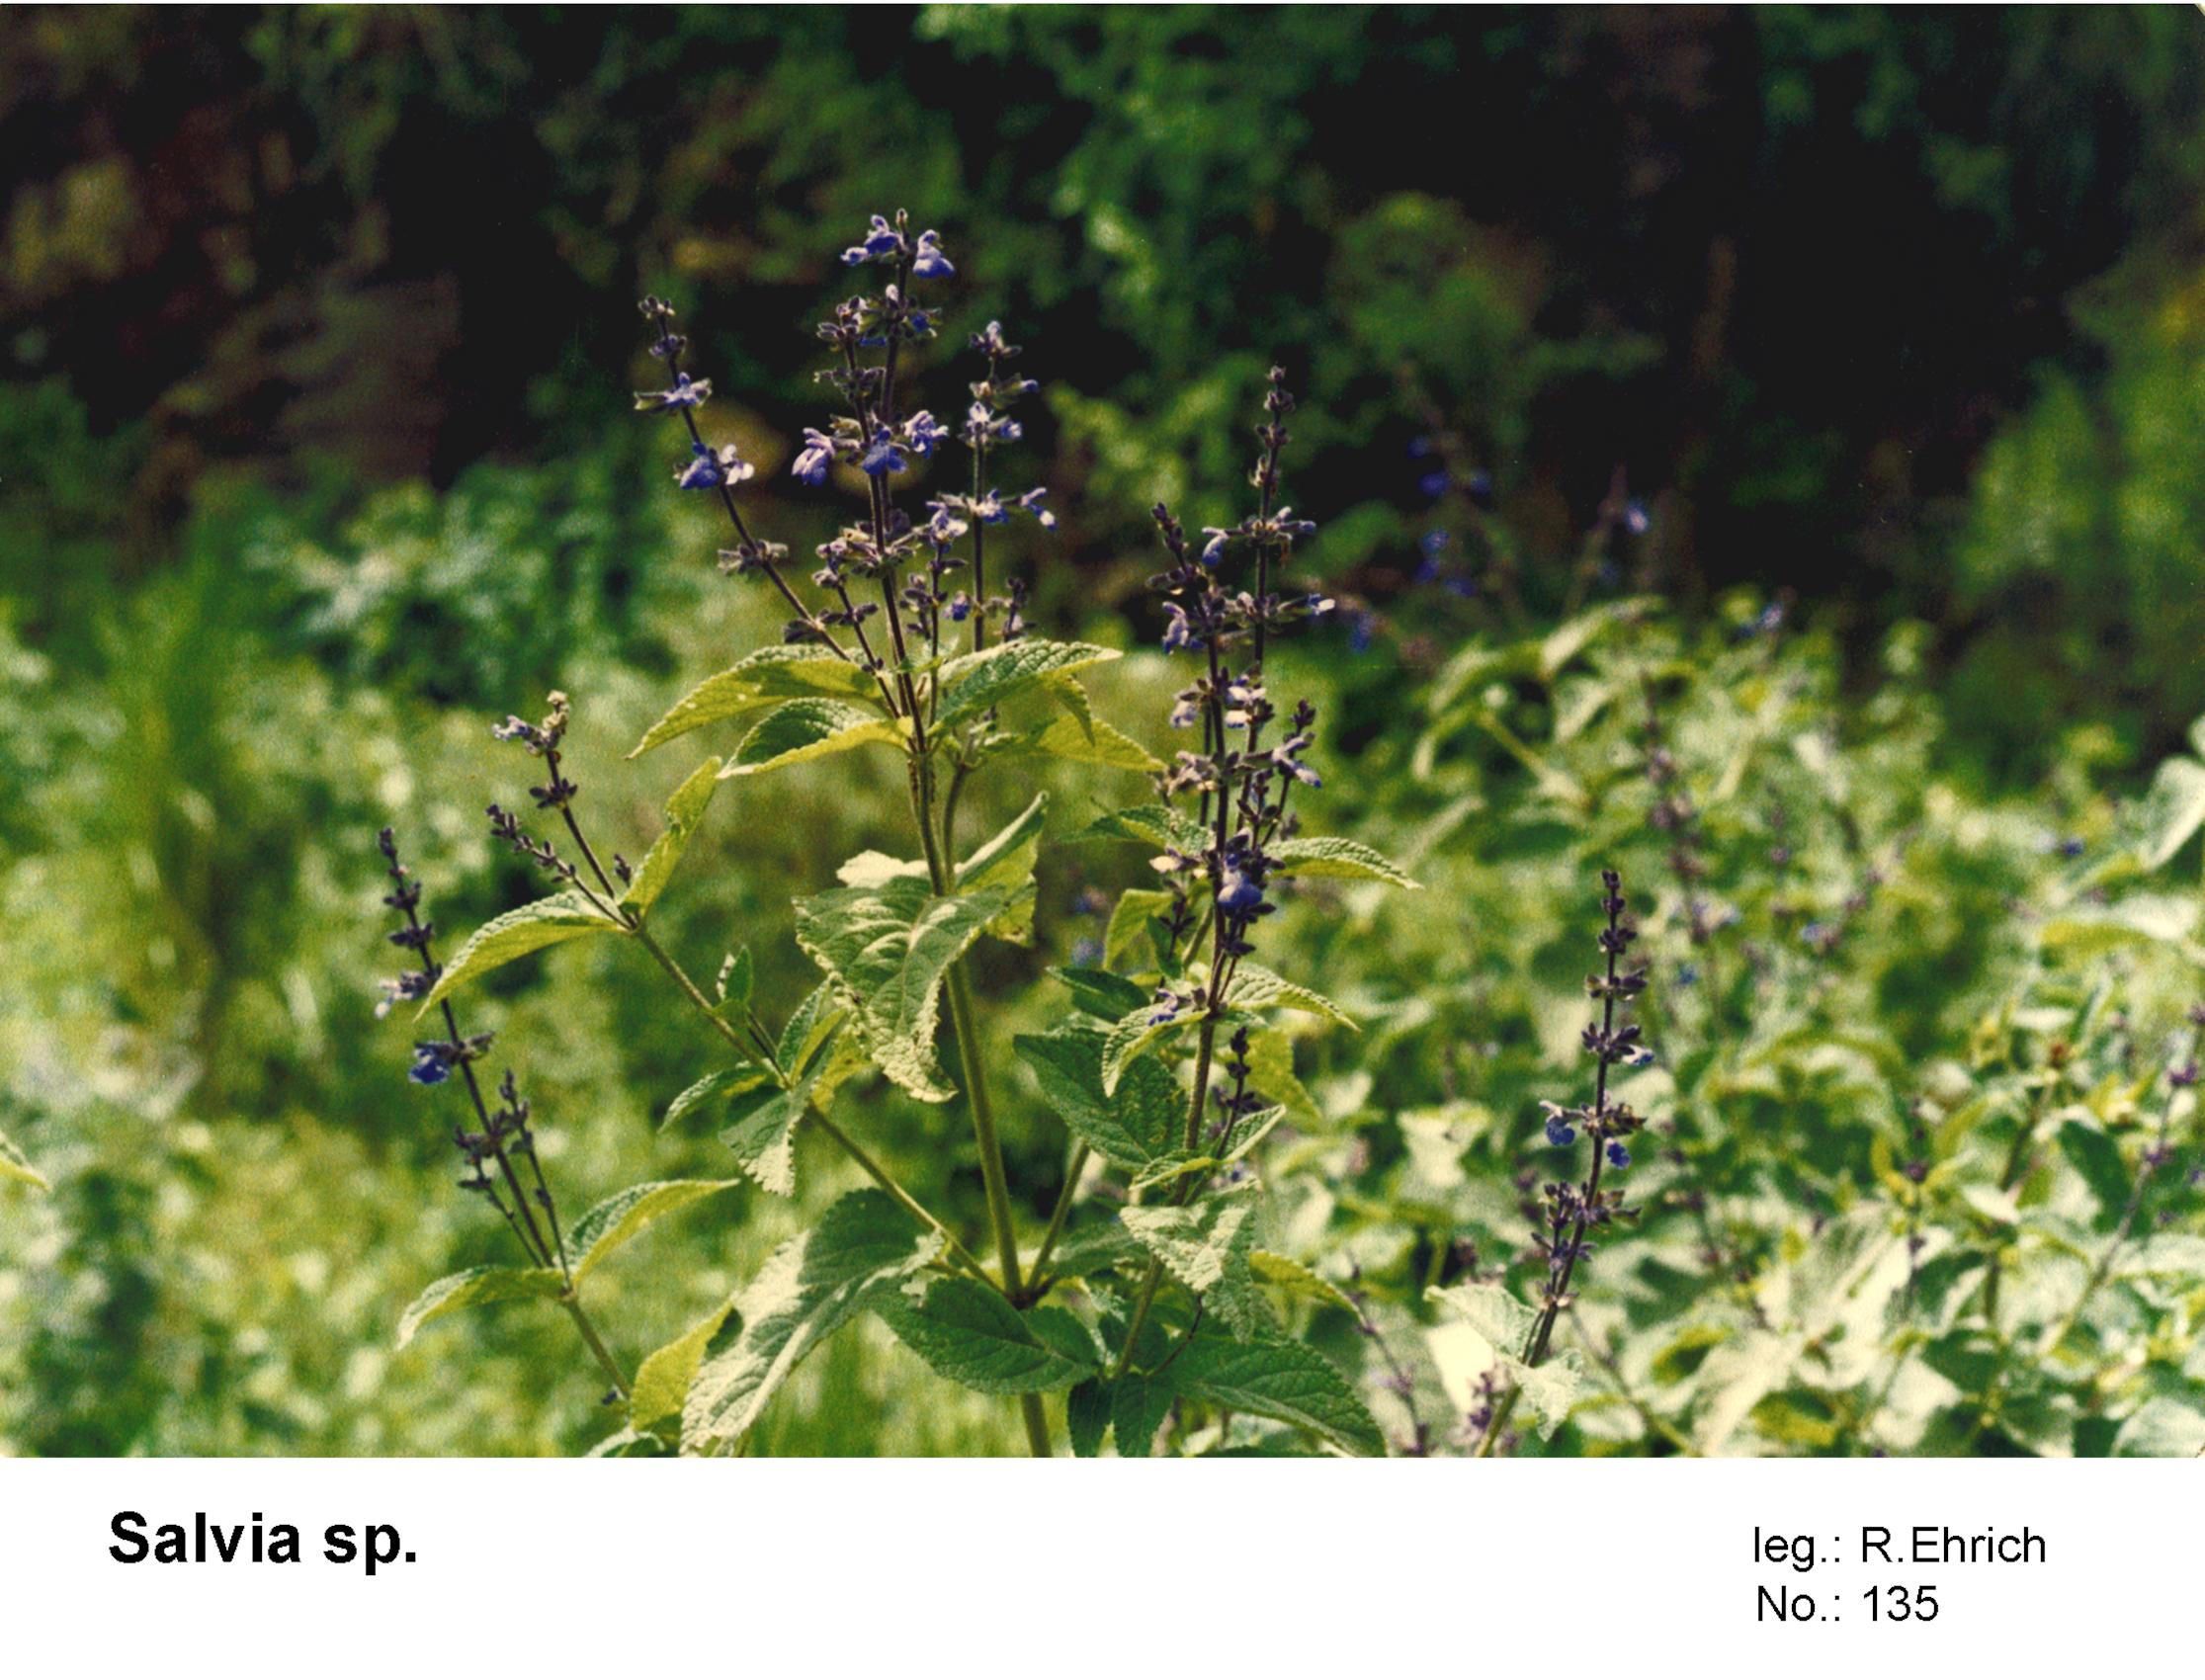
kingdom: Plantae
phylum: Tracheophyta
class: Magnoliopsida
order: Lamiales
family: Lamiaceae
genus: Salvia
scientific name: Salvia stachydifolia
